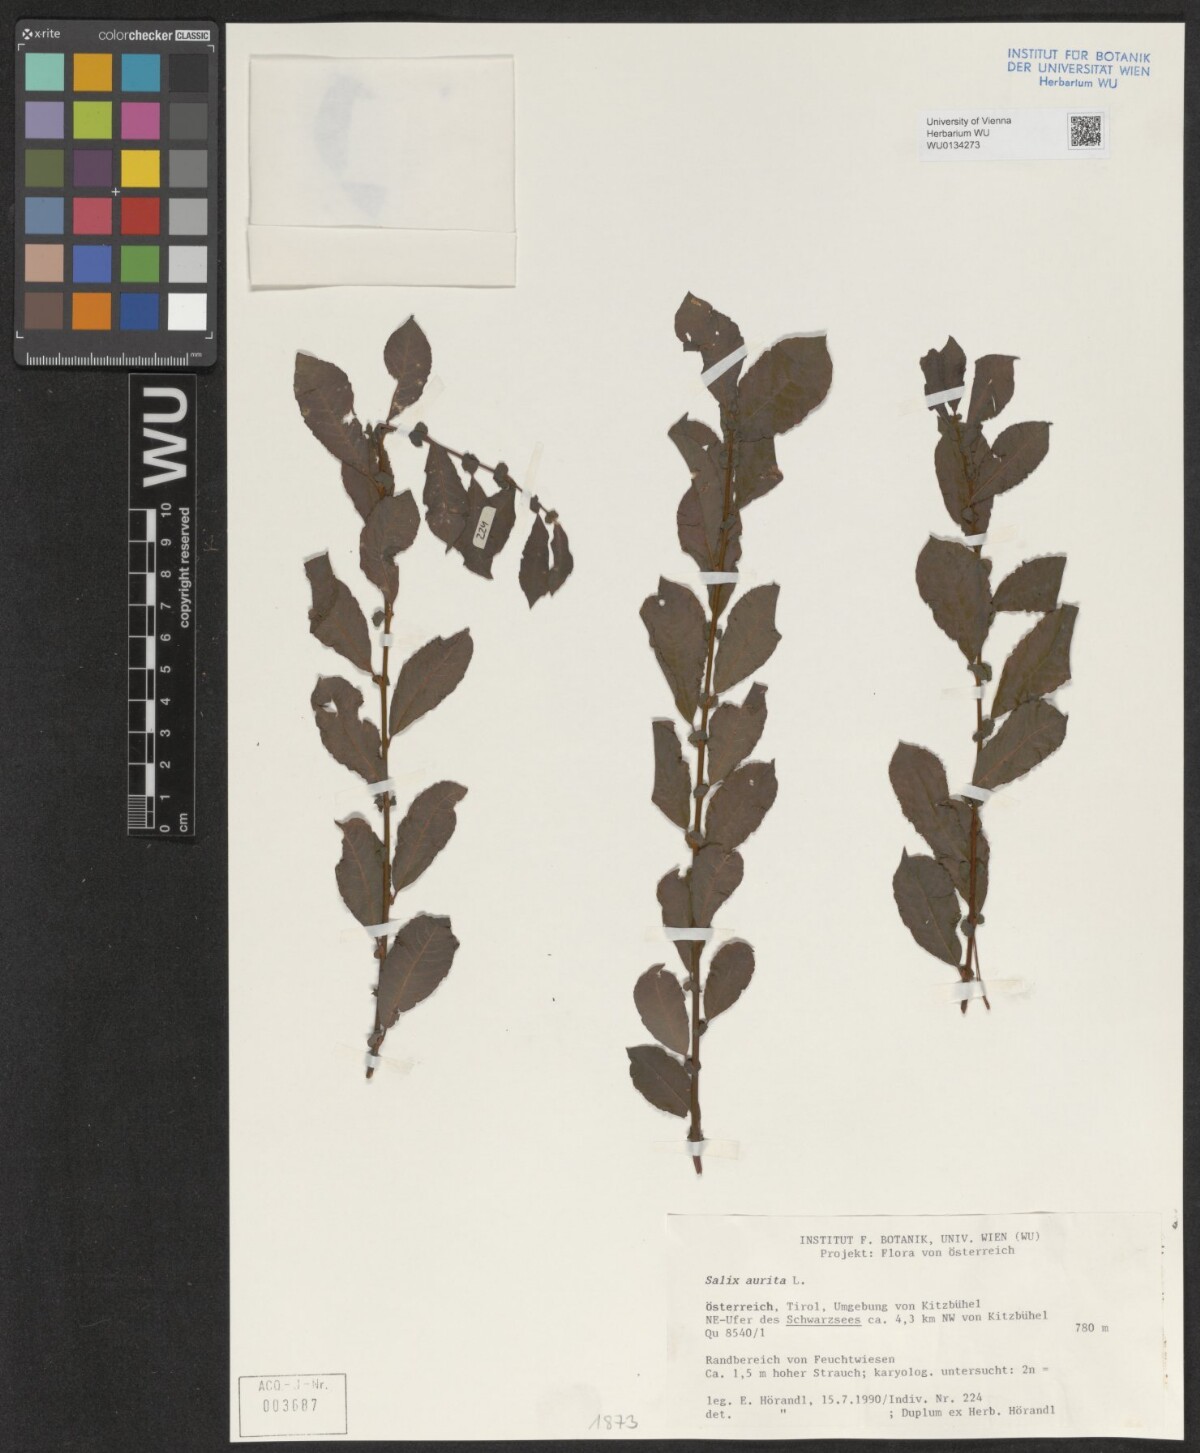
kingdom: Plantae
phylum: Tracheophyta
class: Magnoliopsida
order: Malpighiales
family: Salicaceae
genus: Salix
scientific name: Salix aurita
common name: Eared willow
